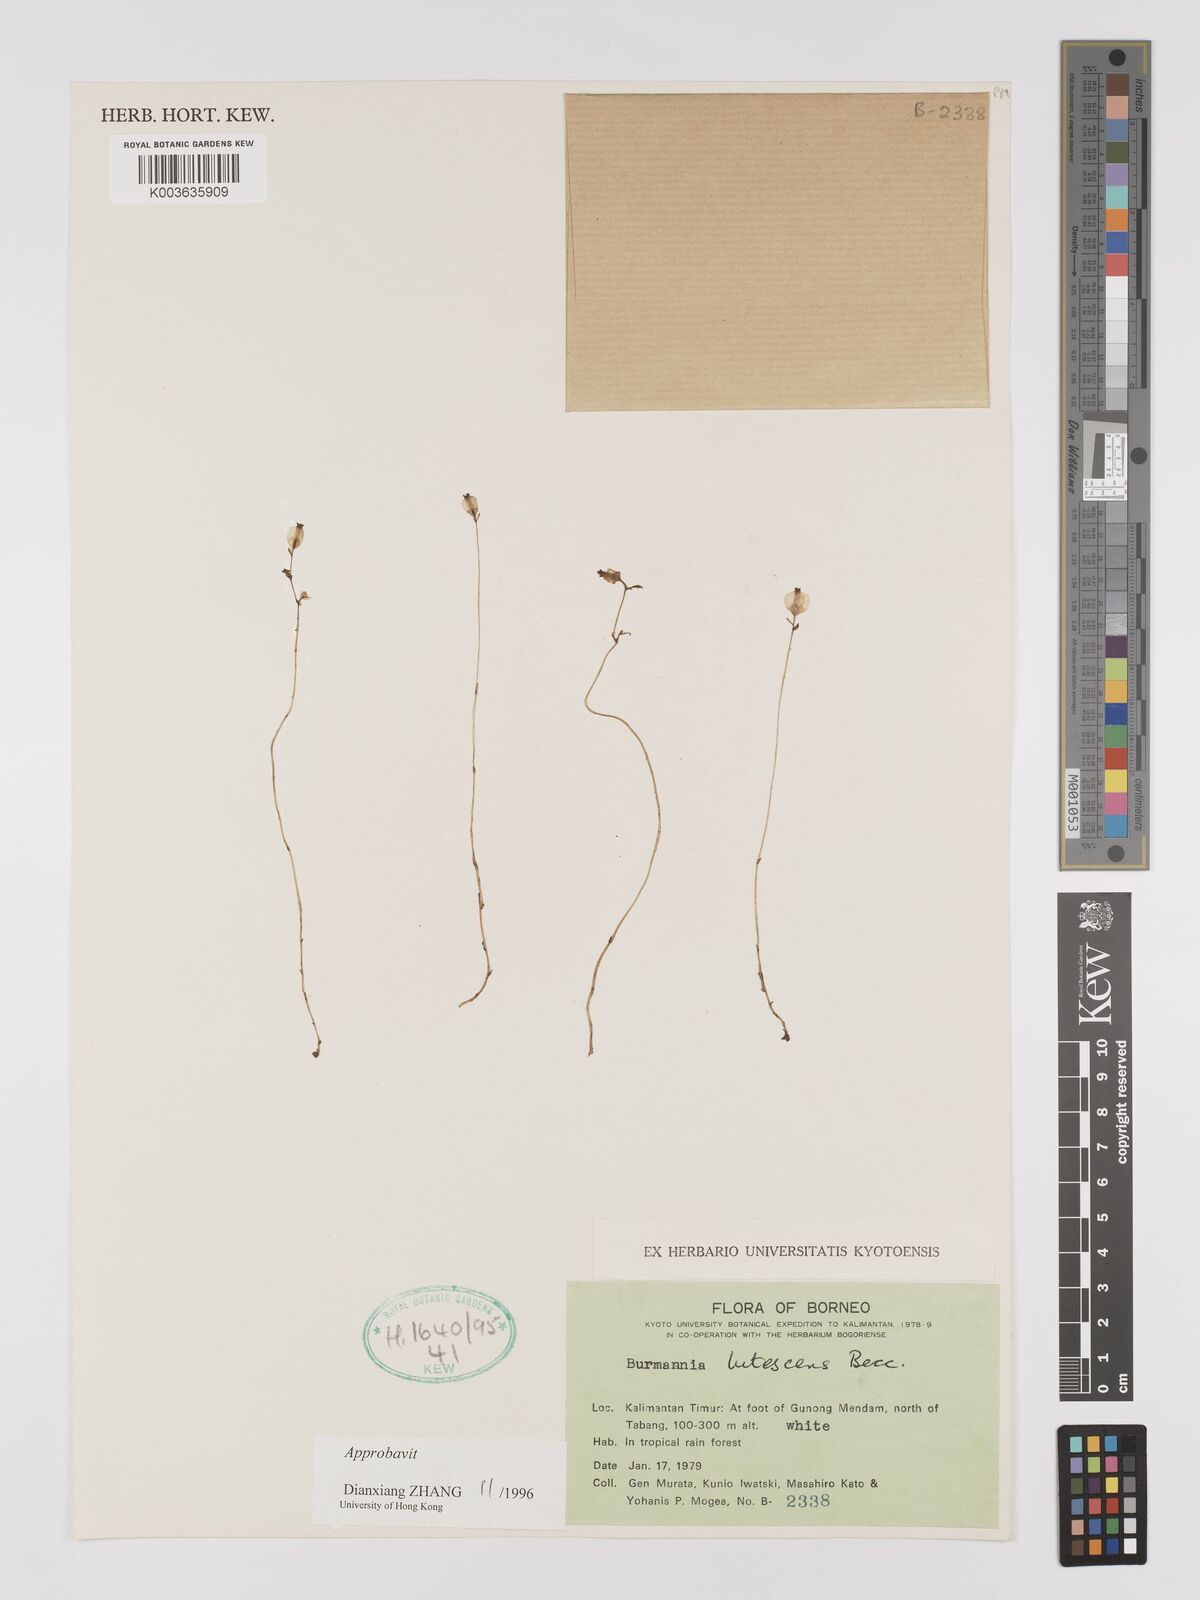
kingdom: Plantae
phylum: Tracheophyta
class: Liliopsida
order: Dioscoreales
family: Burmanniaceae
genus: Burmannia
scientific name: Burmannia lutescens
